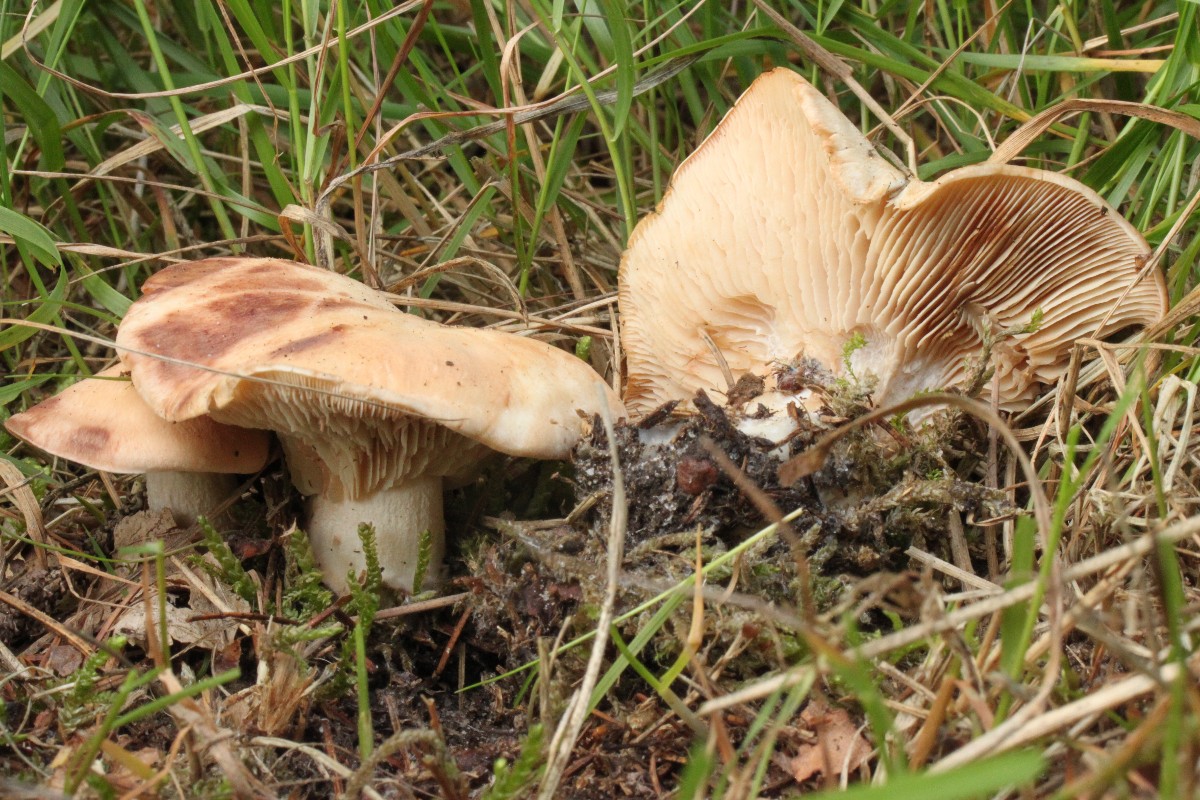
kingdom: Fungi
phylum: Basidiomycota
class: Agaricomycetes
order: Agaricales
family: Entolomataceae
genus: Clitopilus
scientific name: Clitopilus geminus
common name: kødfarvet troldhat
